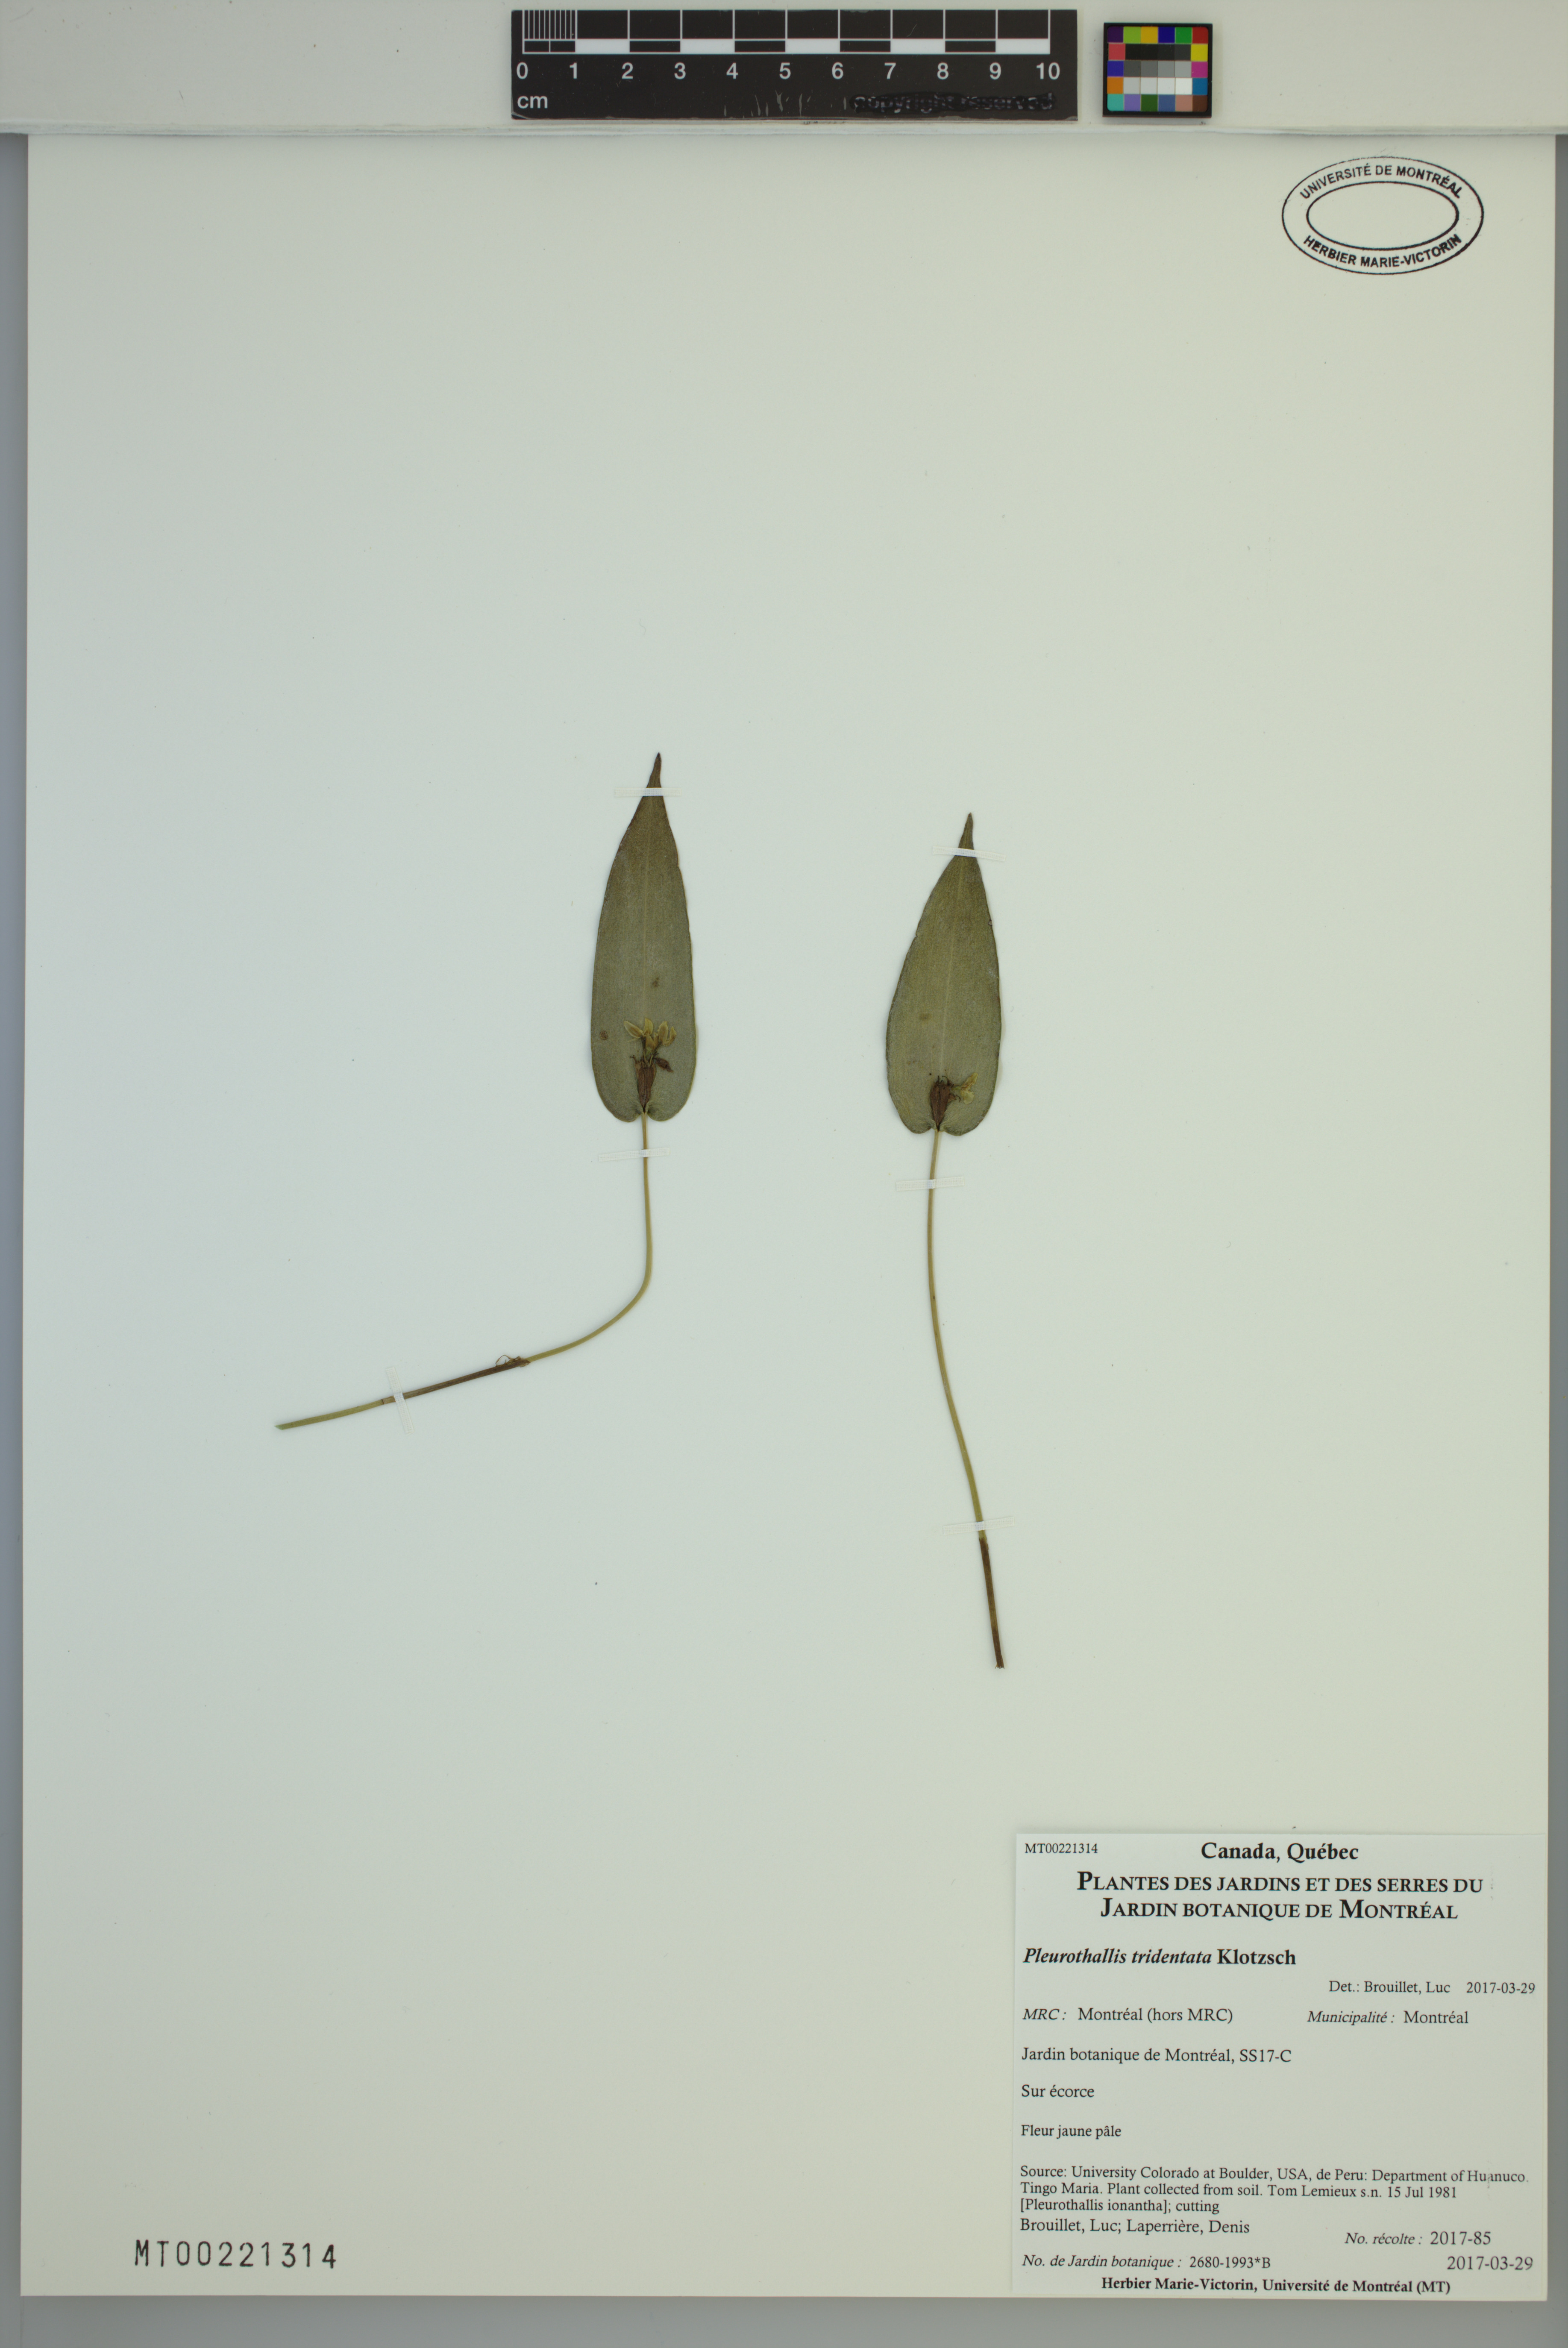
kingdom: Plantae
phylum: Tracheophyta
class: Liliopsida
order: Asparagales
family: Orchidaceae
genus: Pleurothallis
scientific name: Pleurothallis tridentata
